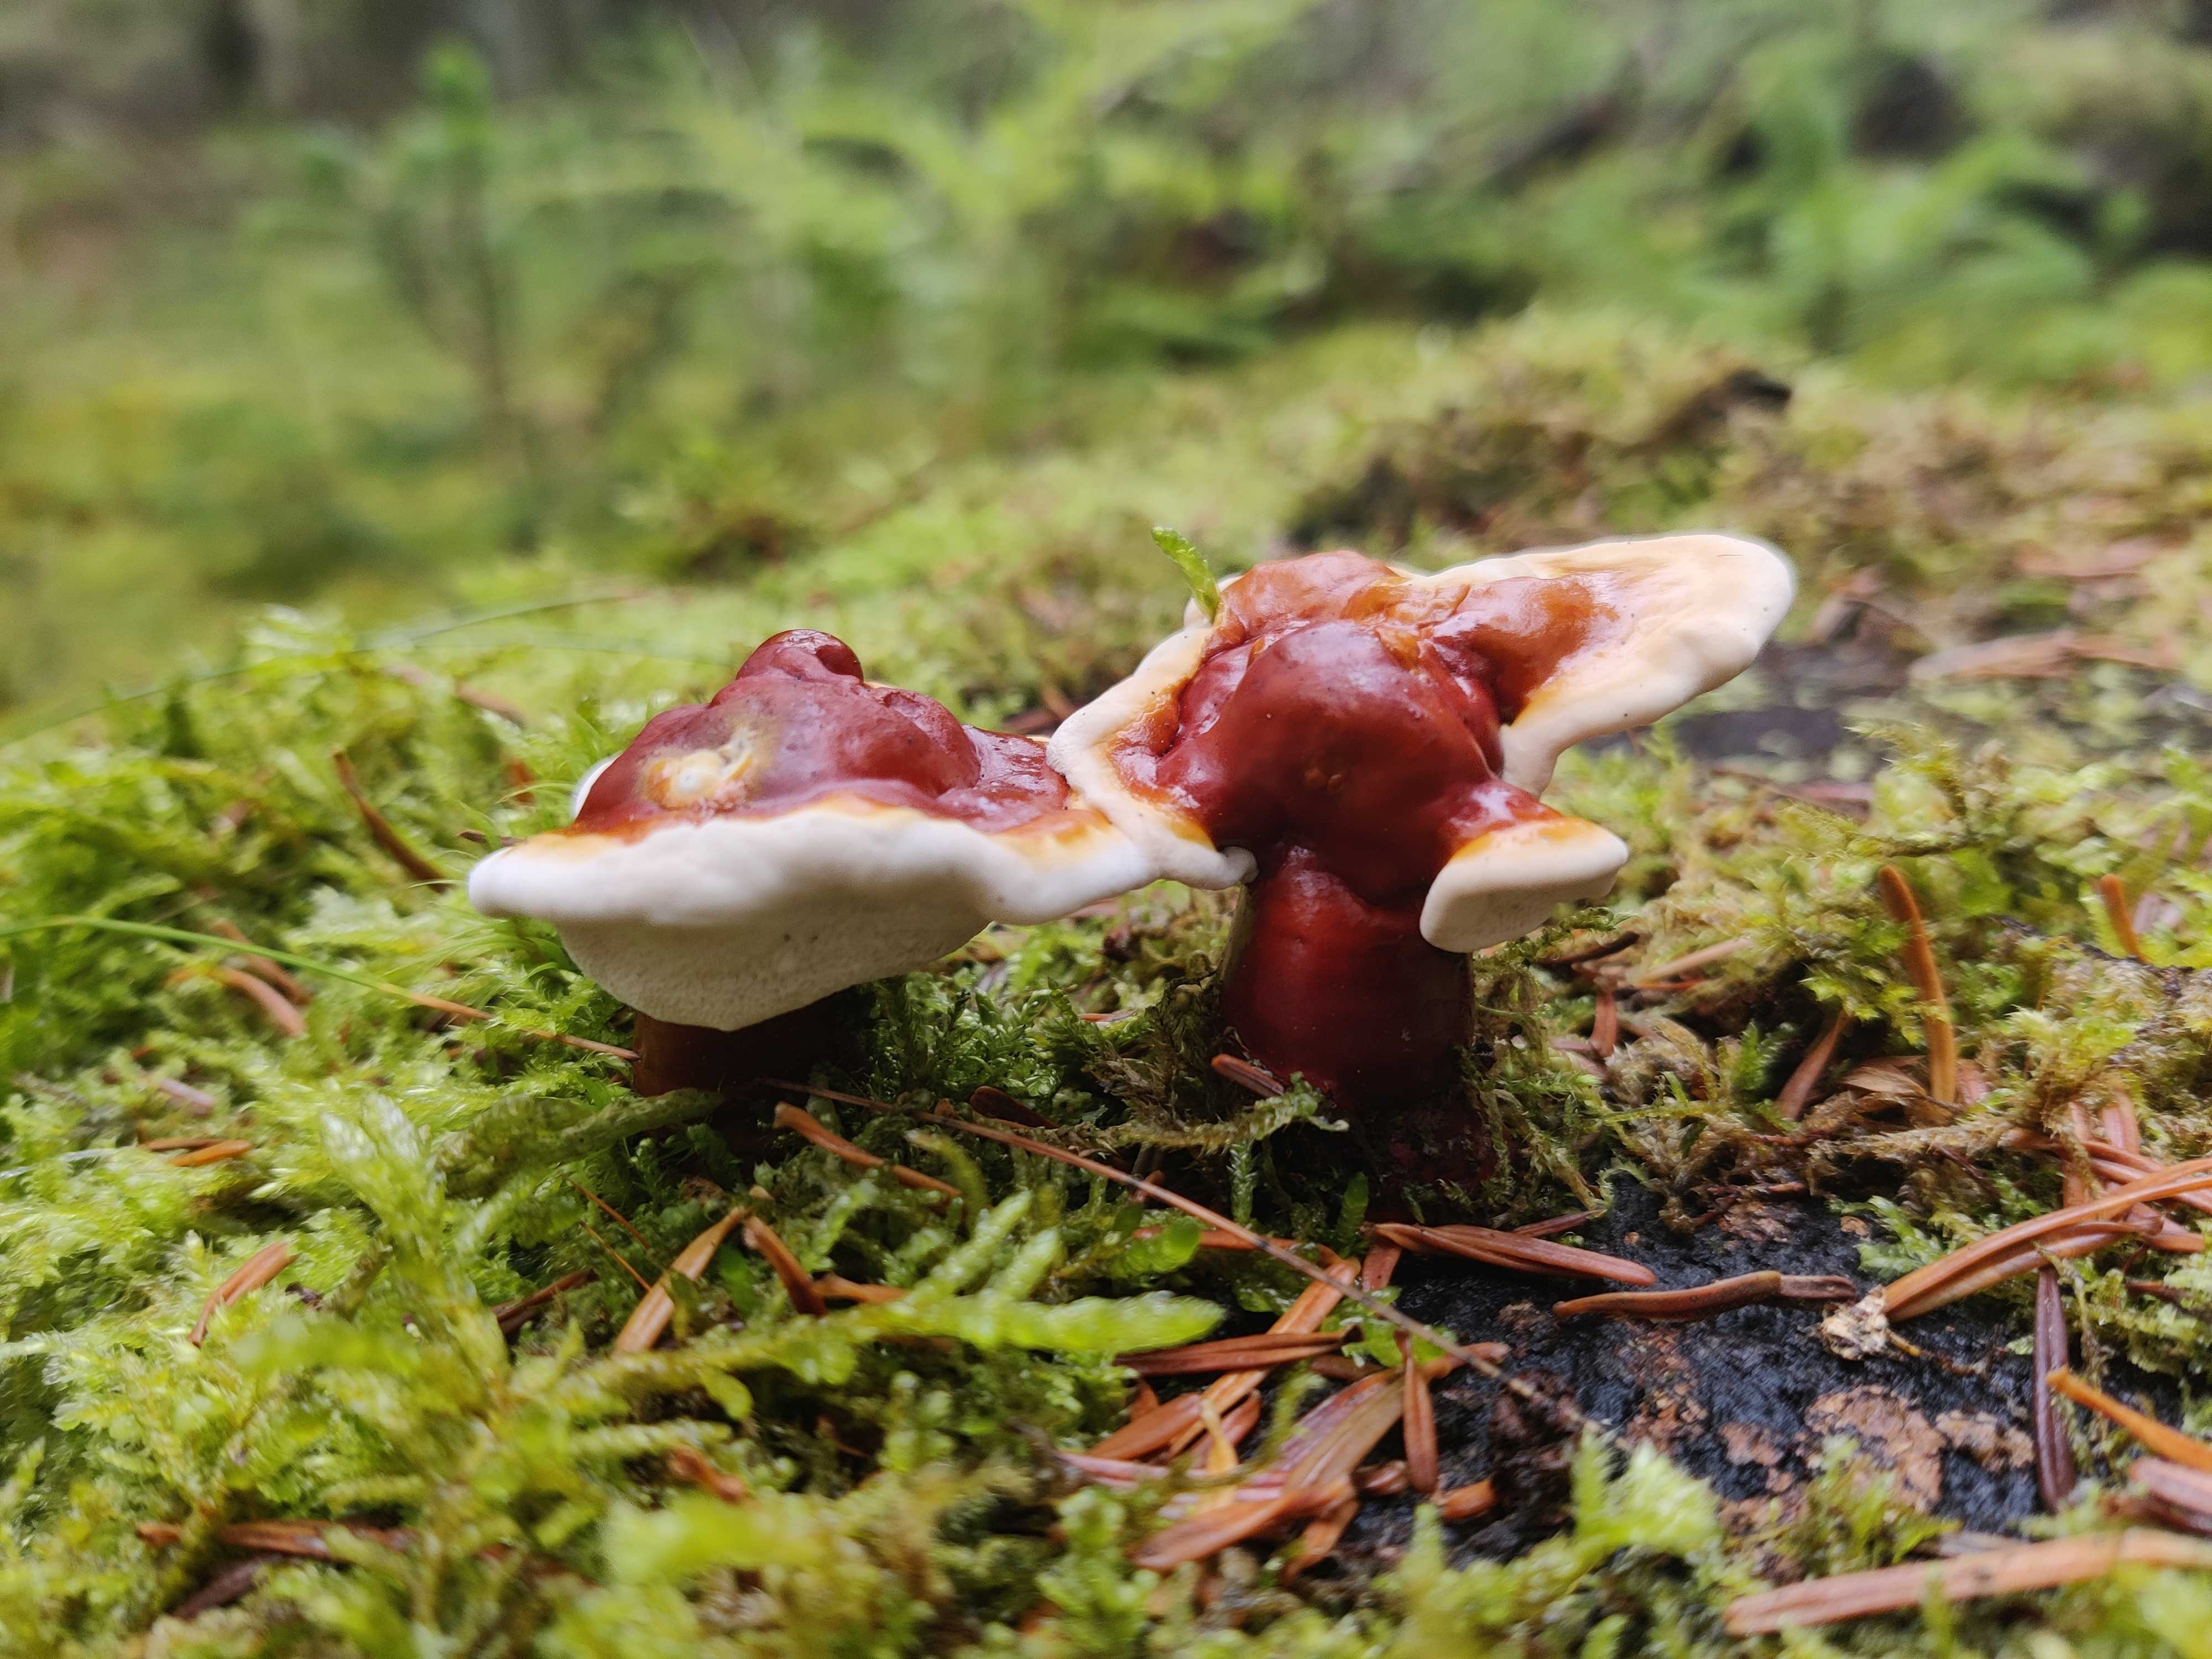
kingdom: Fungi
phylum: Basidiomycota
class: Agaricomycetes
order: Polyporales
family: Polyporaceae
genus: Ganoderma
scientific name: Ganoderma lucidum
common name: skinnende lakporesvamp
